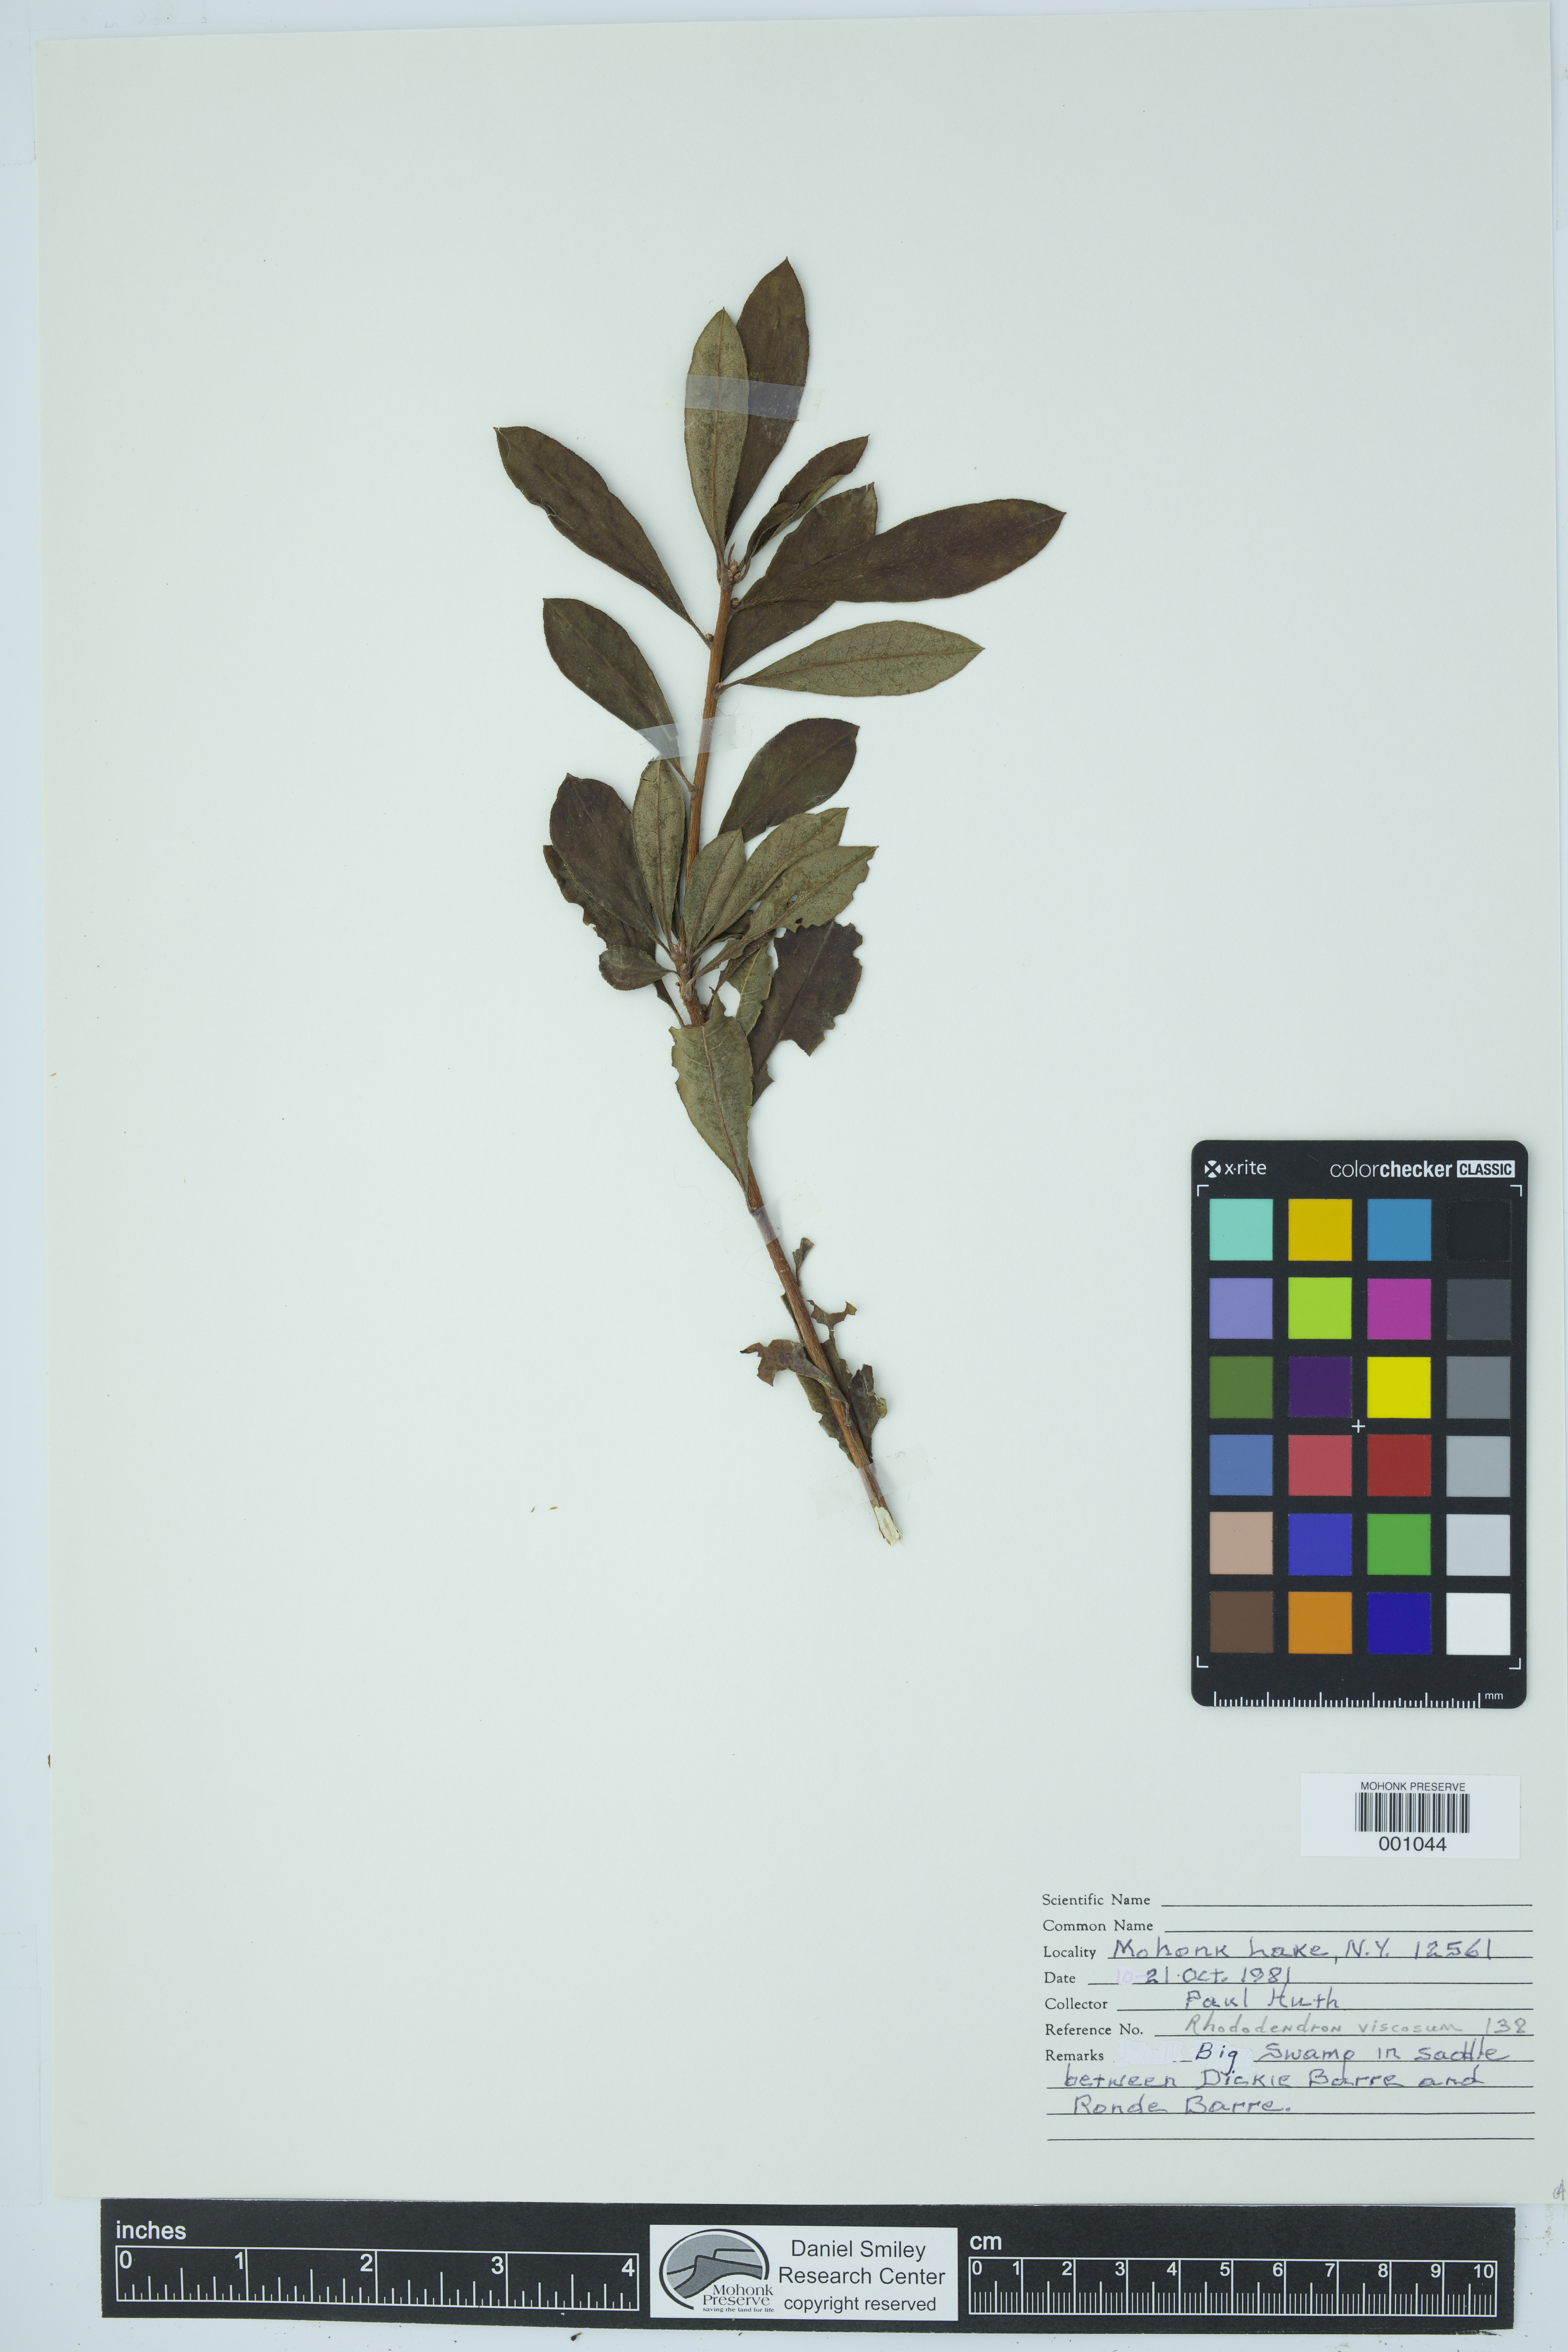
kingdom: Plantae
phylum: Tracheophyta
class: Magnoliopsida
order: Ericales
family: Ericaceae
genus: Rhododendron
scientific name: Rhododendron viscosum
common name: Clammy azalea
